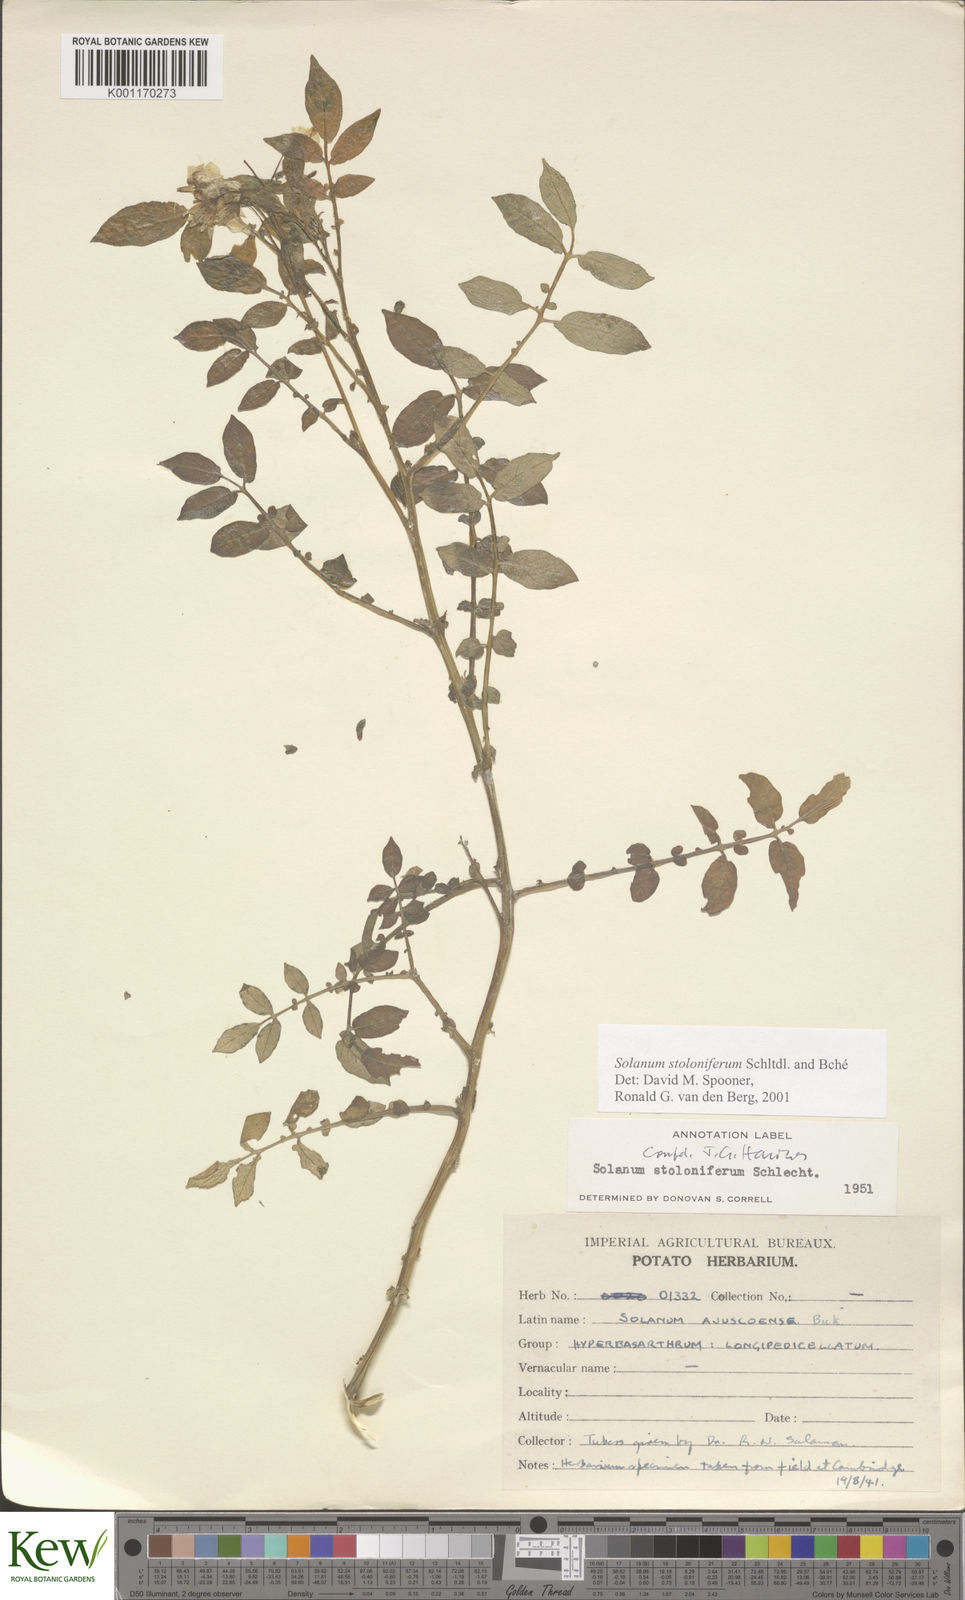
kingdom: Plantae
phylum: Tracheophyta
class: Magnoliopsida
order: Solanales
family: Solanaceae
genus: Solanum
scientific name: Solanum stoloniferum
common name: Fendler's nighshade
